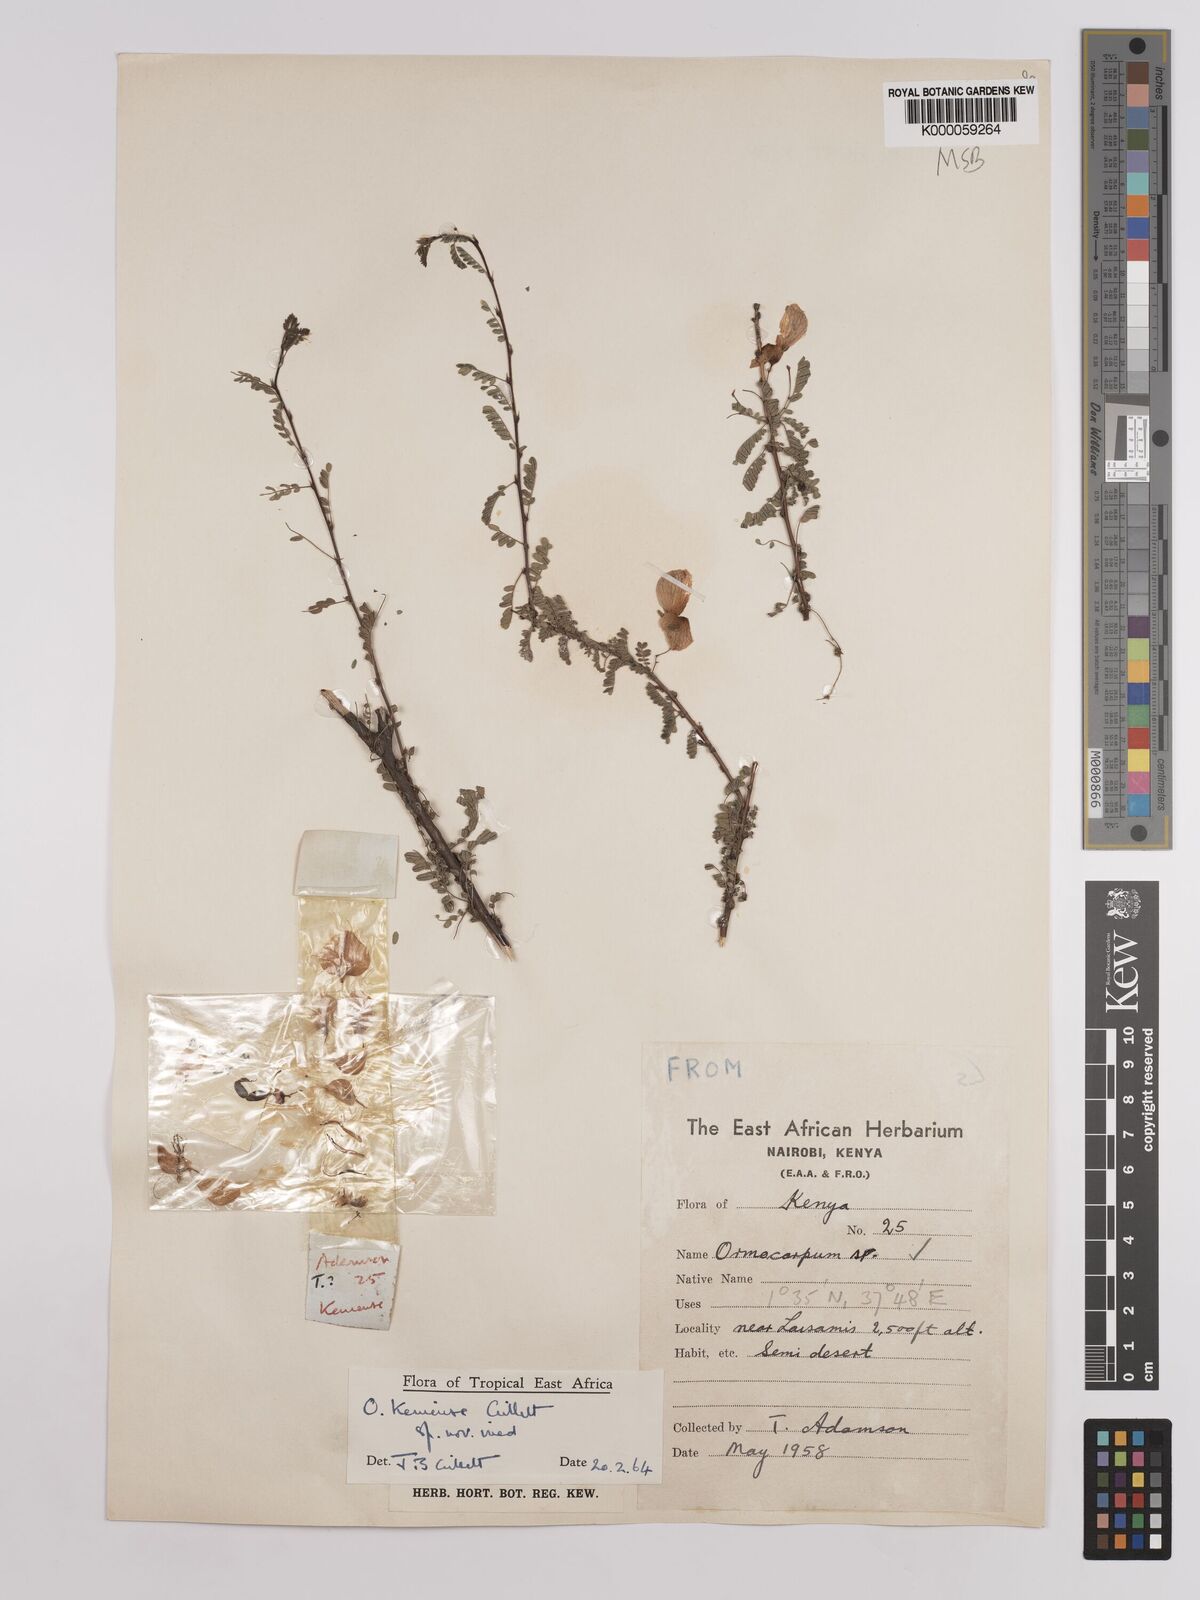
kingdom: Plantae
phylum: Tracheophyta
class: Magnoliopsida
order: Fabales
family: Fabaceae
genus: Ormocarpum
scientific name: Ormocarpum keniense
